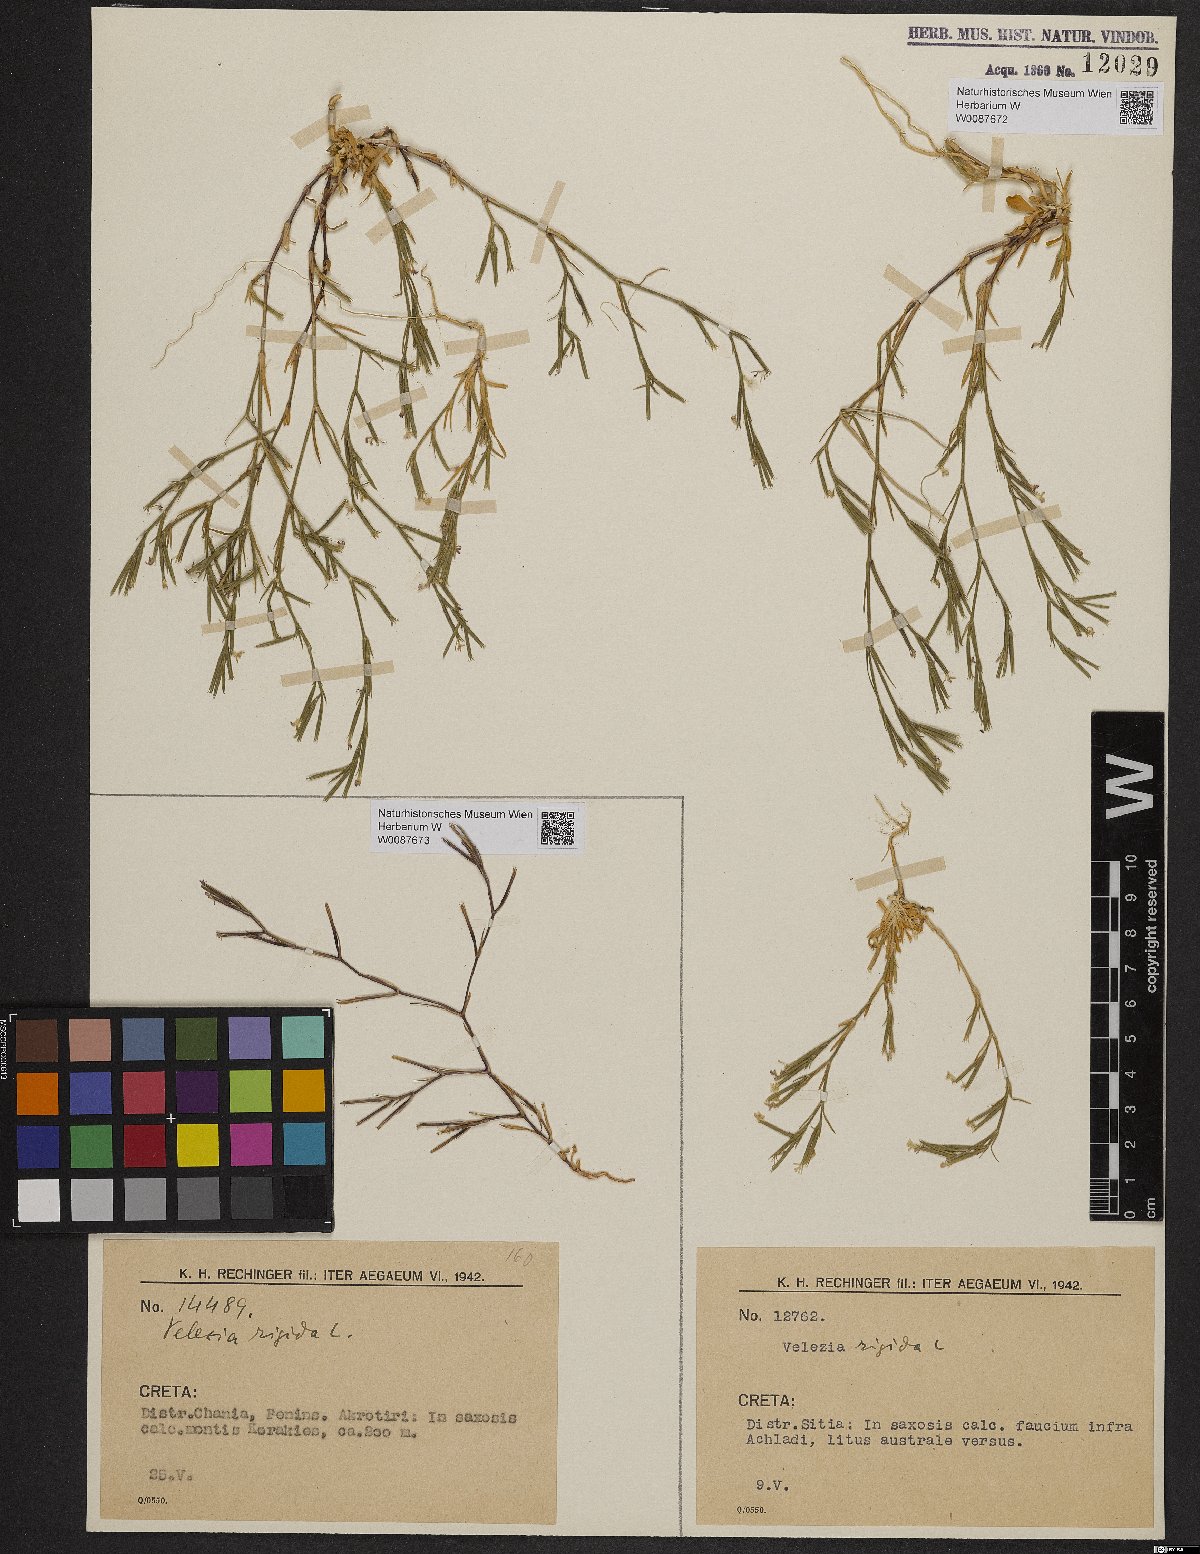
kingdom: Plantae
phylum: Tracheophyta
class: Magnoliopsida
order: Caryophyllales
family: Caryophyllaceae
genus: Dianthus
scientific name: Dianthus nudiflorus
